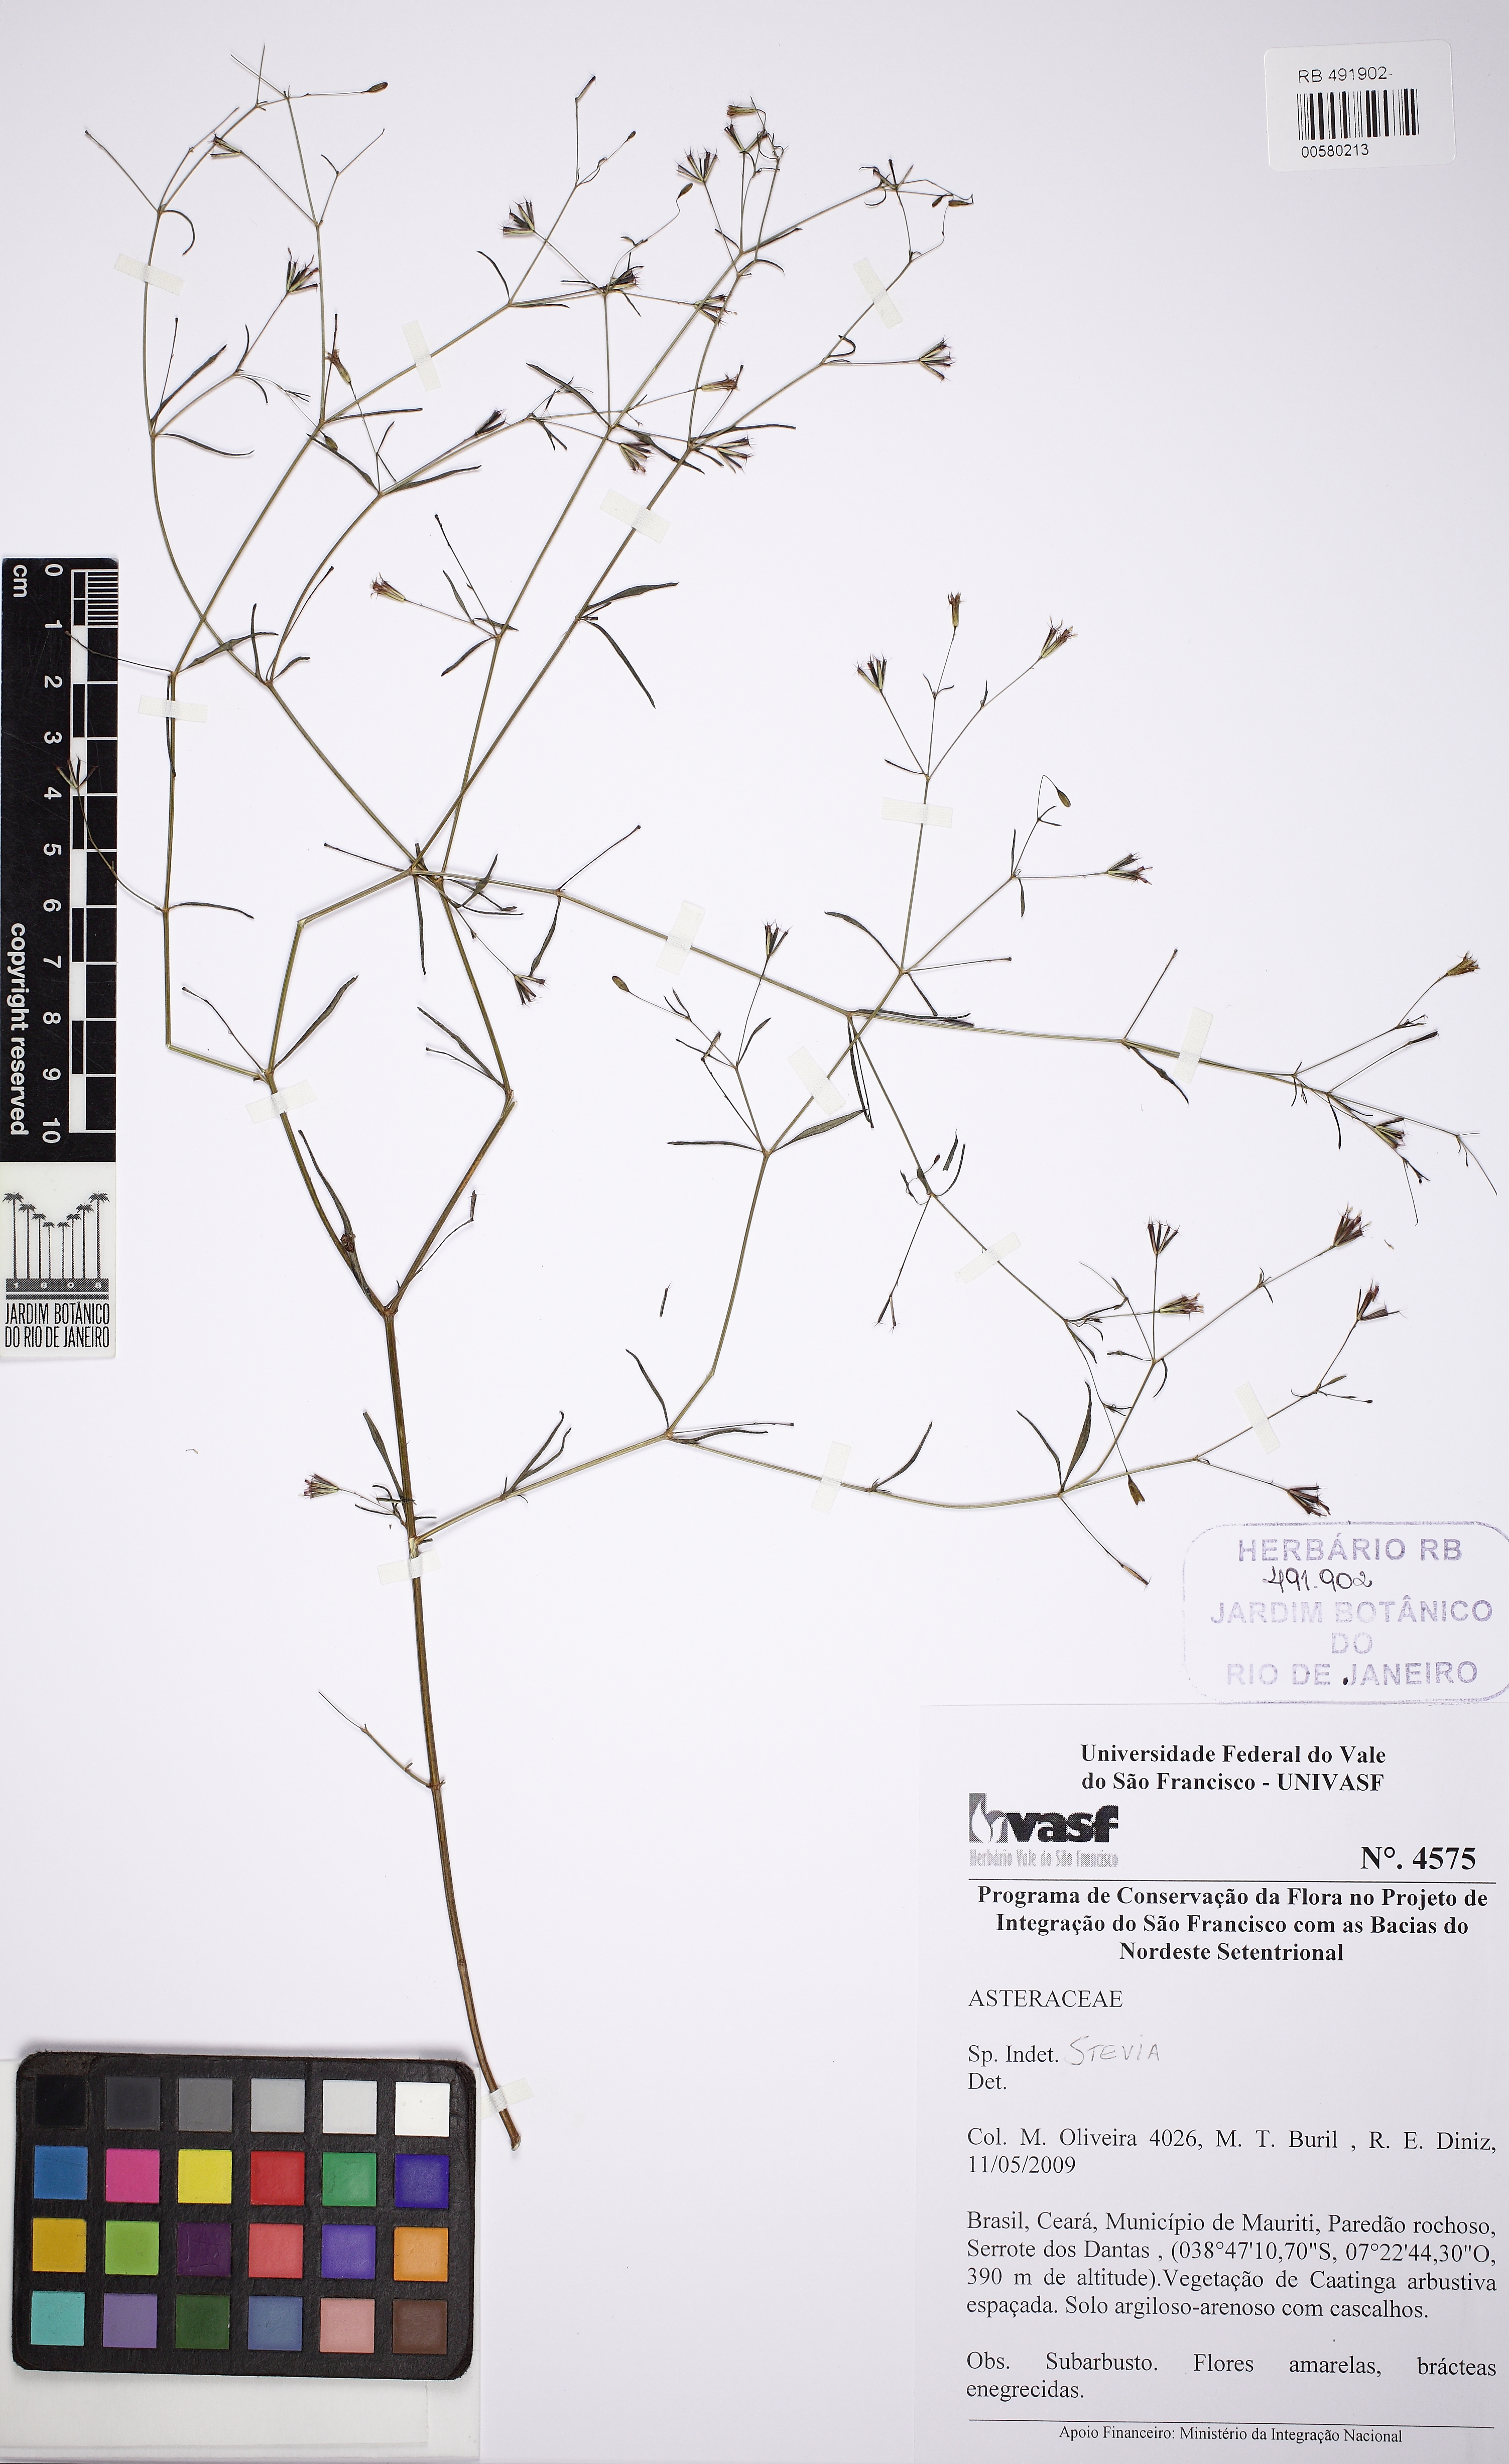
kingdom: Plantae
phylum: Tracheophyta
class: Magnoliopsida
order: Asterales
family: Asteraceae
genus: Stevia
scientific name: Stevia
